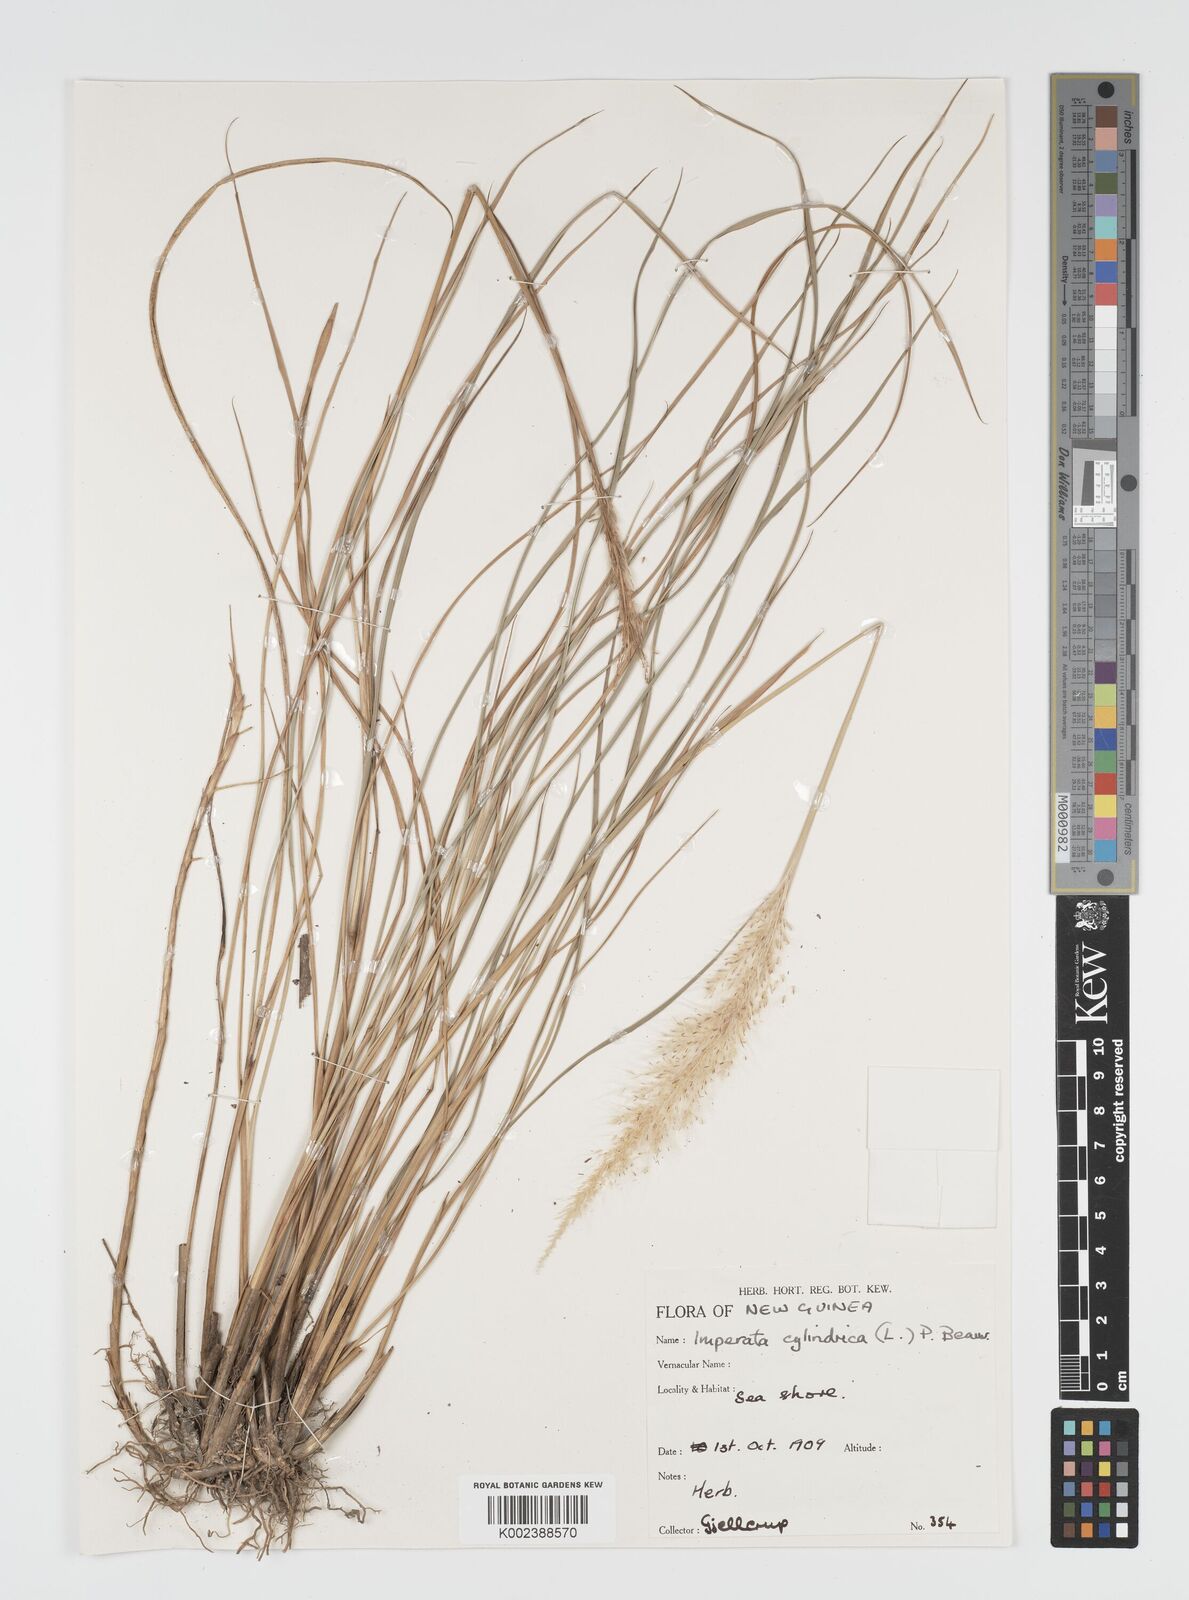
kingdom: Plantae
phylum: Tracheophyta
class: Liliopsida
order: Poales
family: Poaceae
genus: Imperata
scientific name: Imperata cylindrica
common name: Cogongrass
